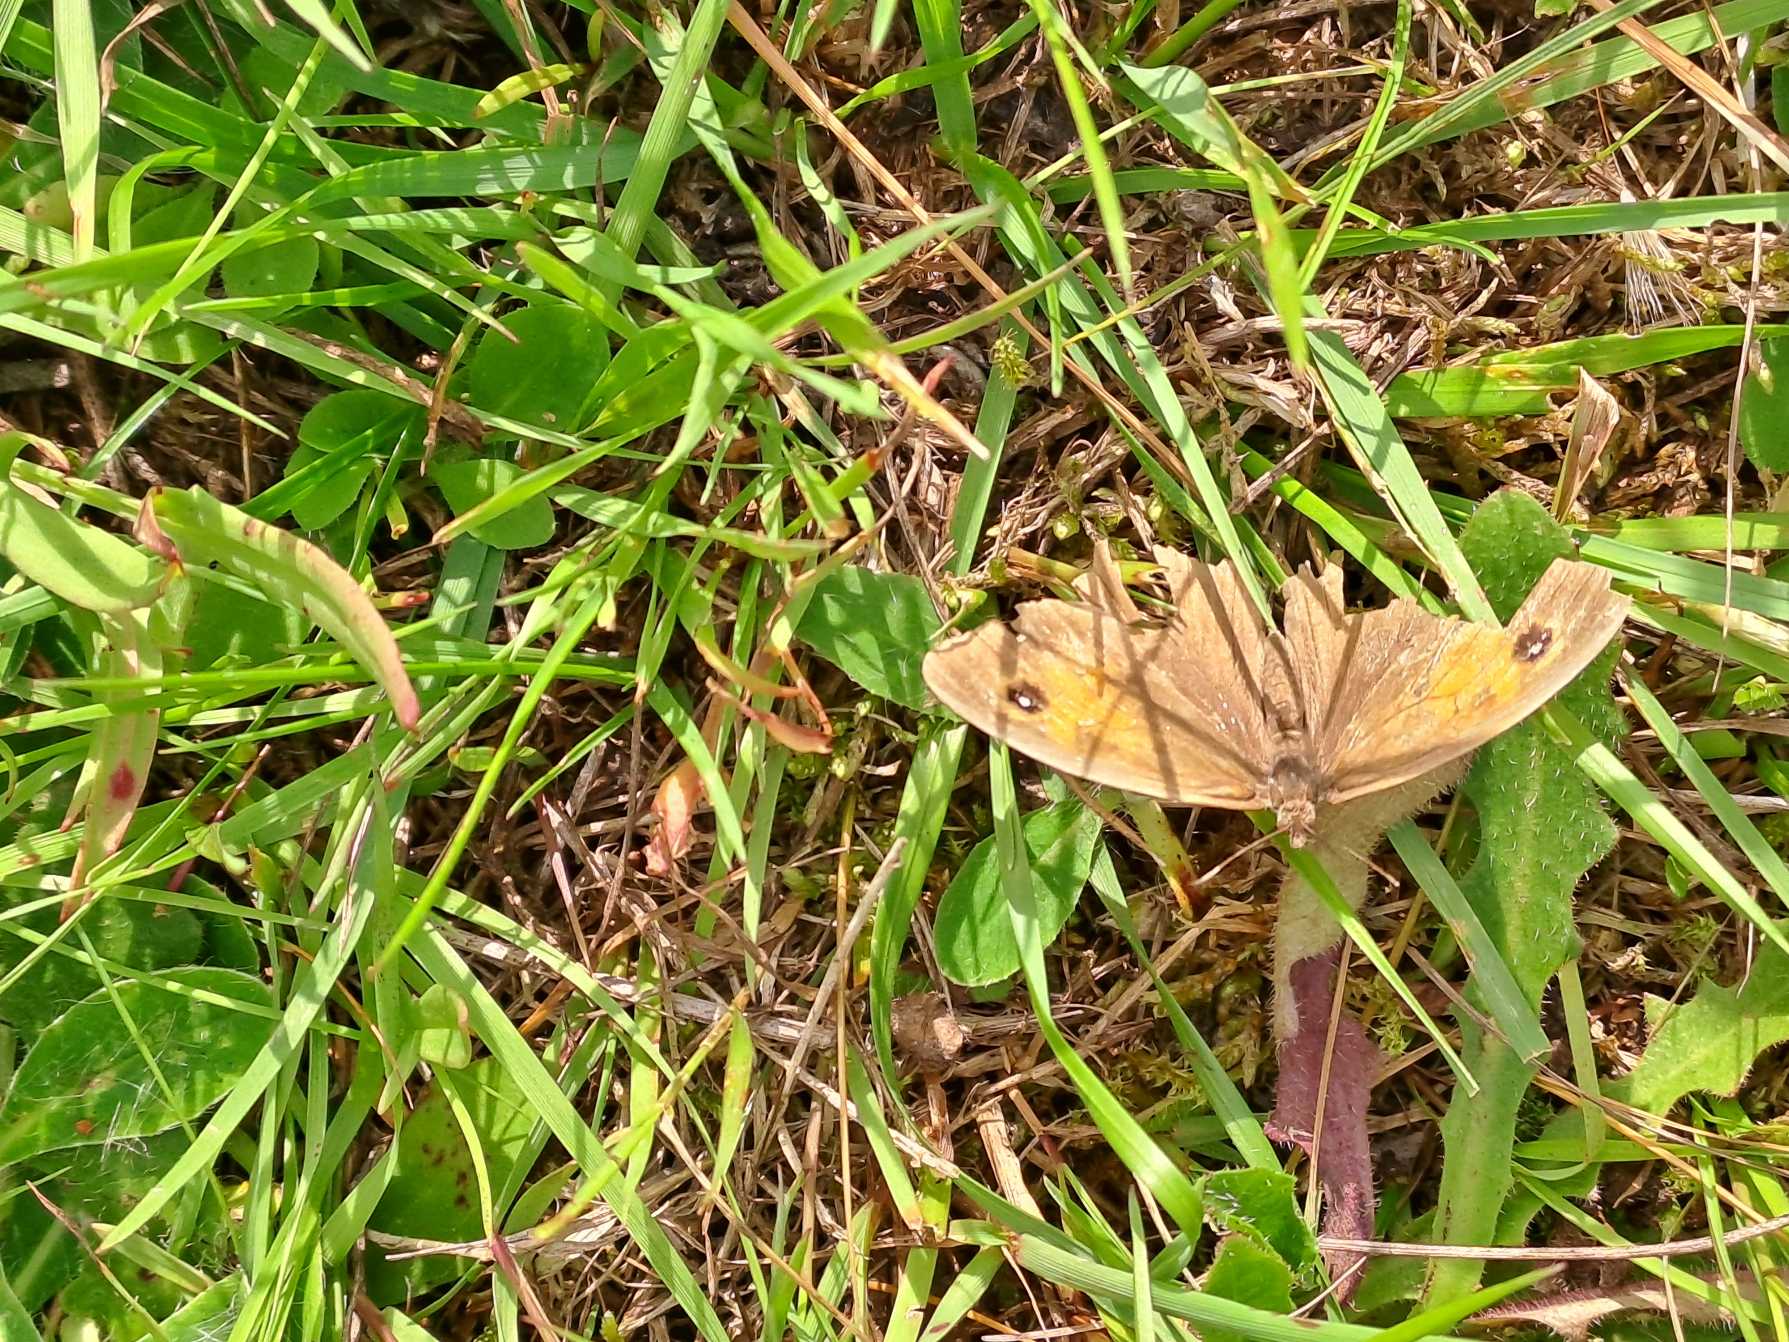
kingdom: Animalia
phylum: Arthropoda
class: Insecta
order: Lepidoptera
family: Nymphalidae
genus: Maniola
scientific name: Maniola jurtina
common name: Græsrandøje
